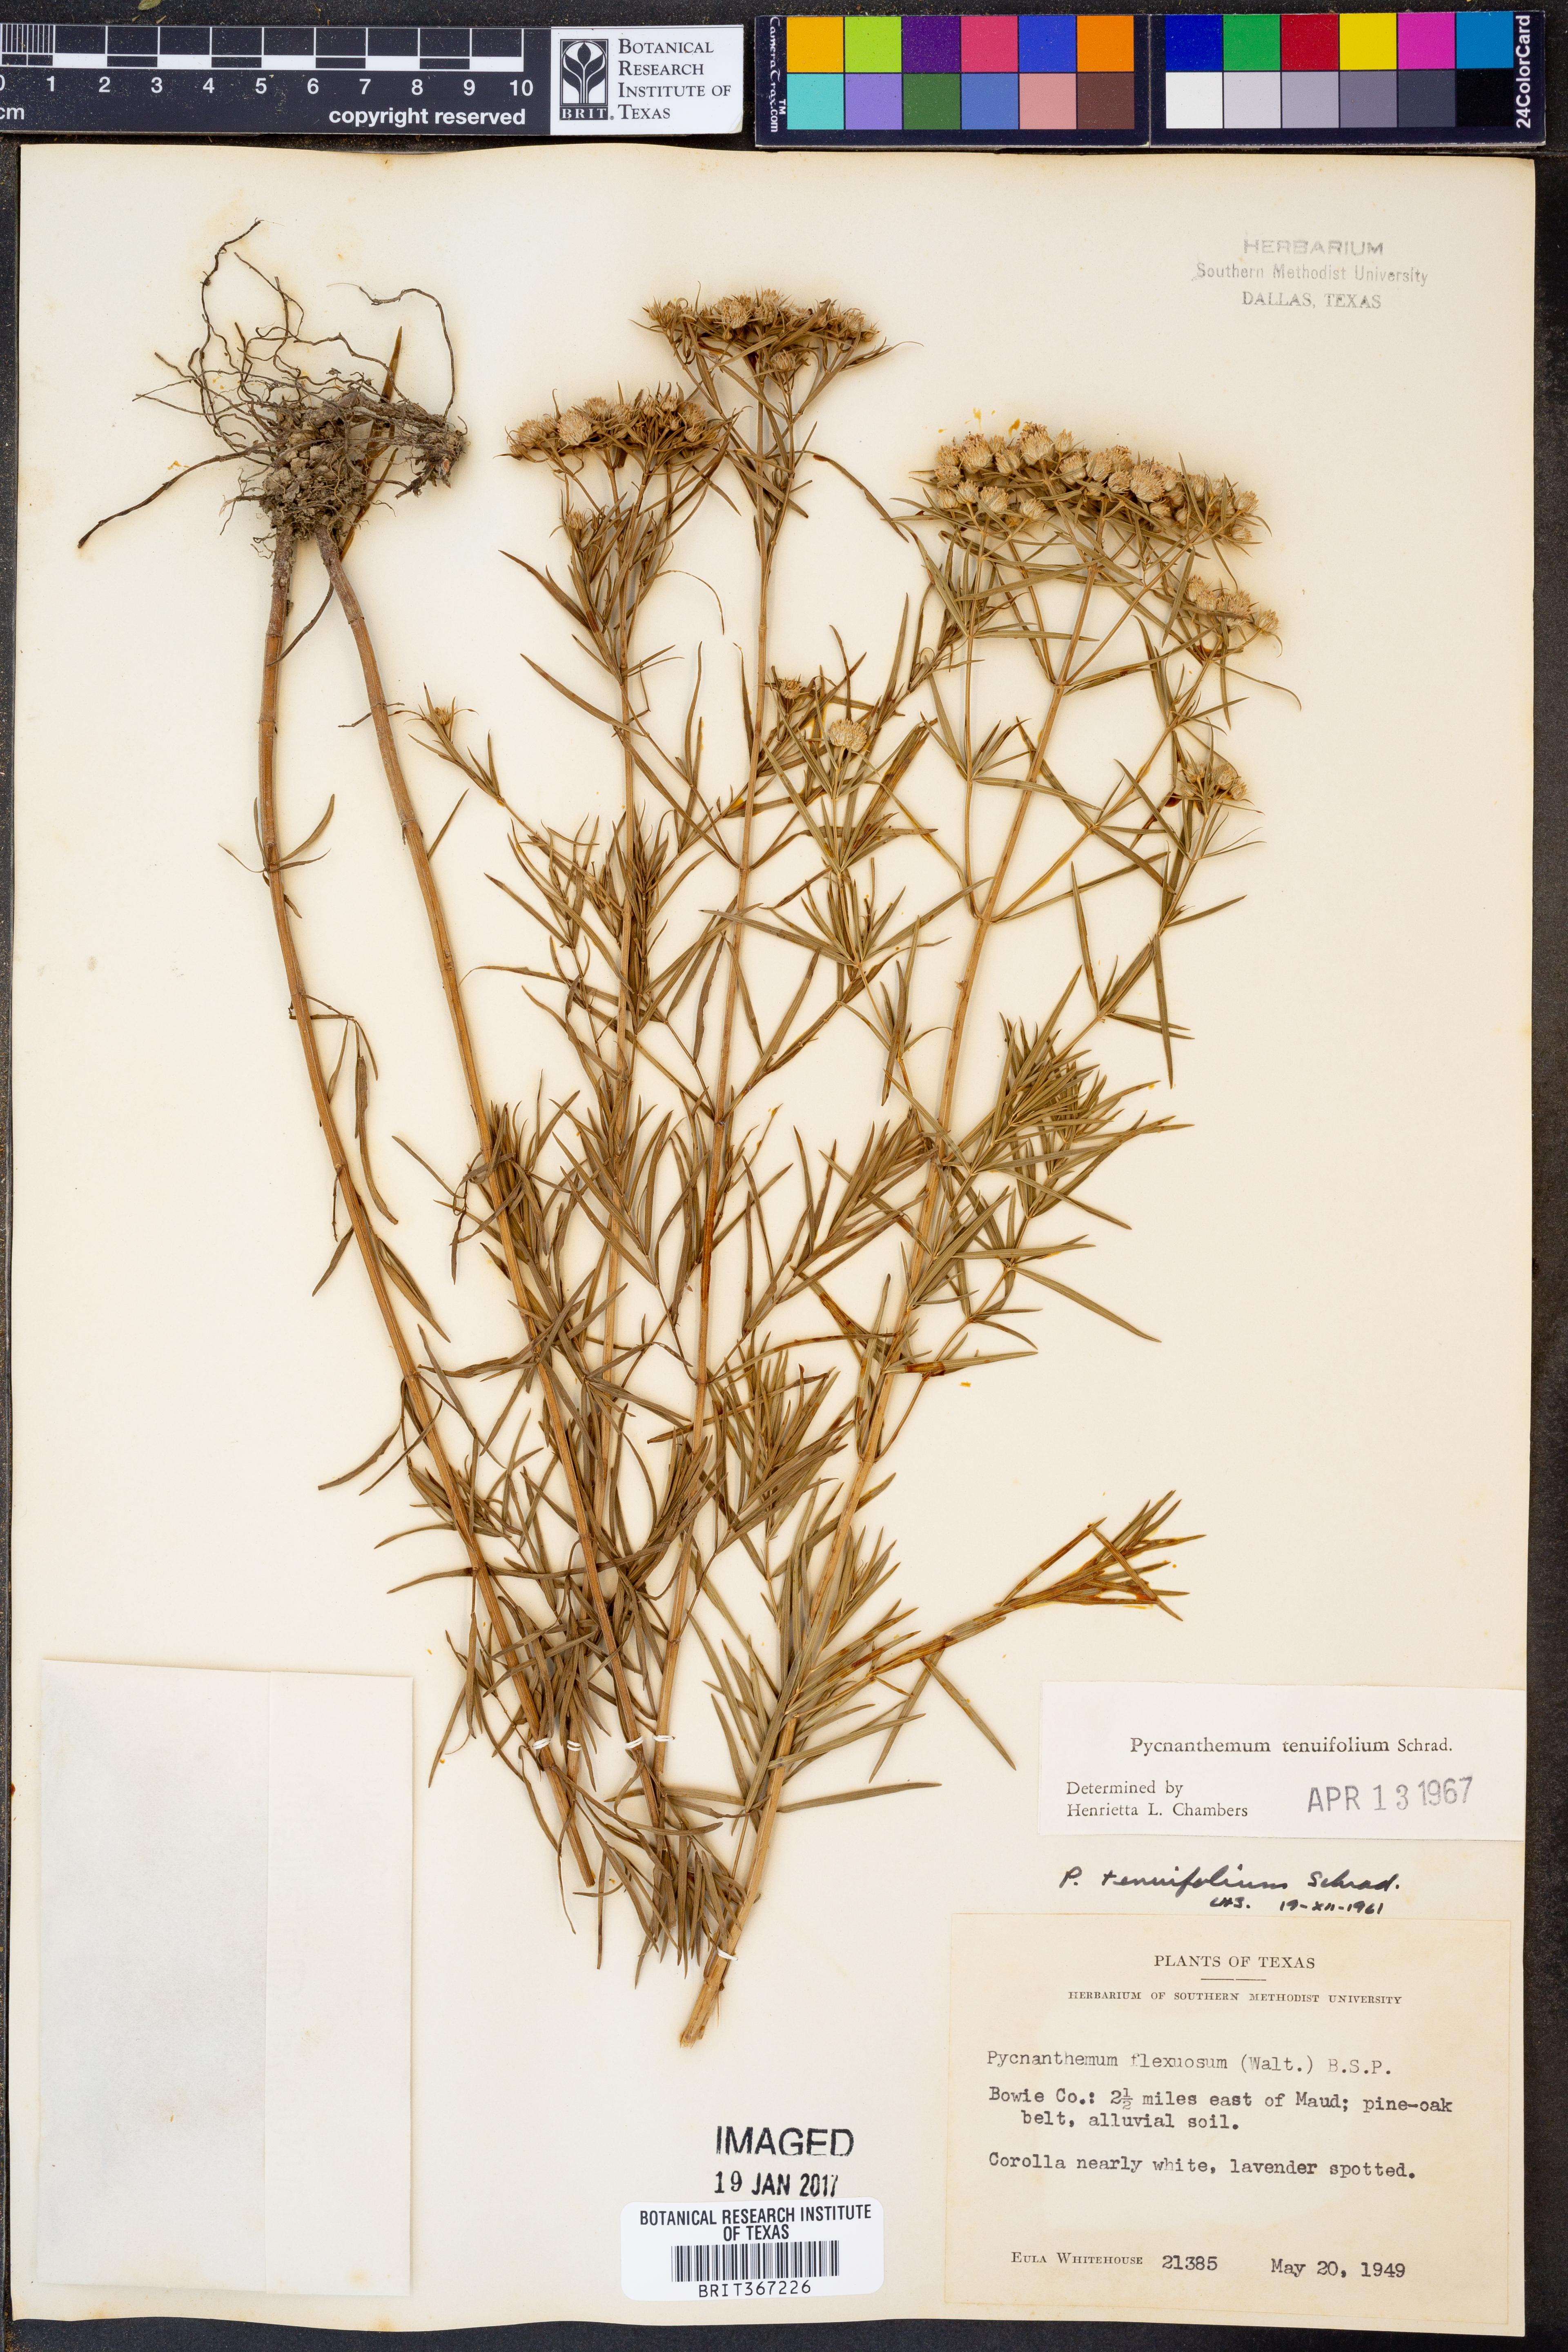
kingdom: Plantae
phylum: Tracheophyta
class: Magnoliopsida
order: Lamiales
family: Lamiaceae
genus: Pycnanthemum
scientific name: Pycnanthemum tenuifolium
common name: Narrow-leaf mountain-mint
